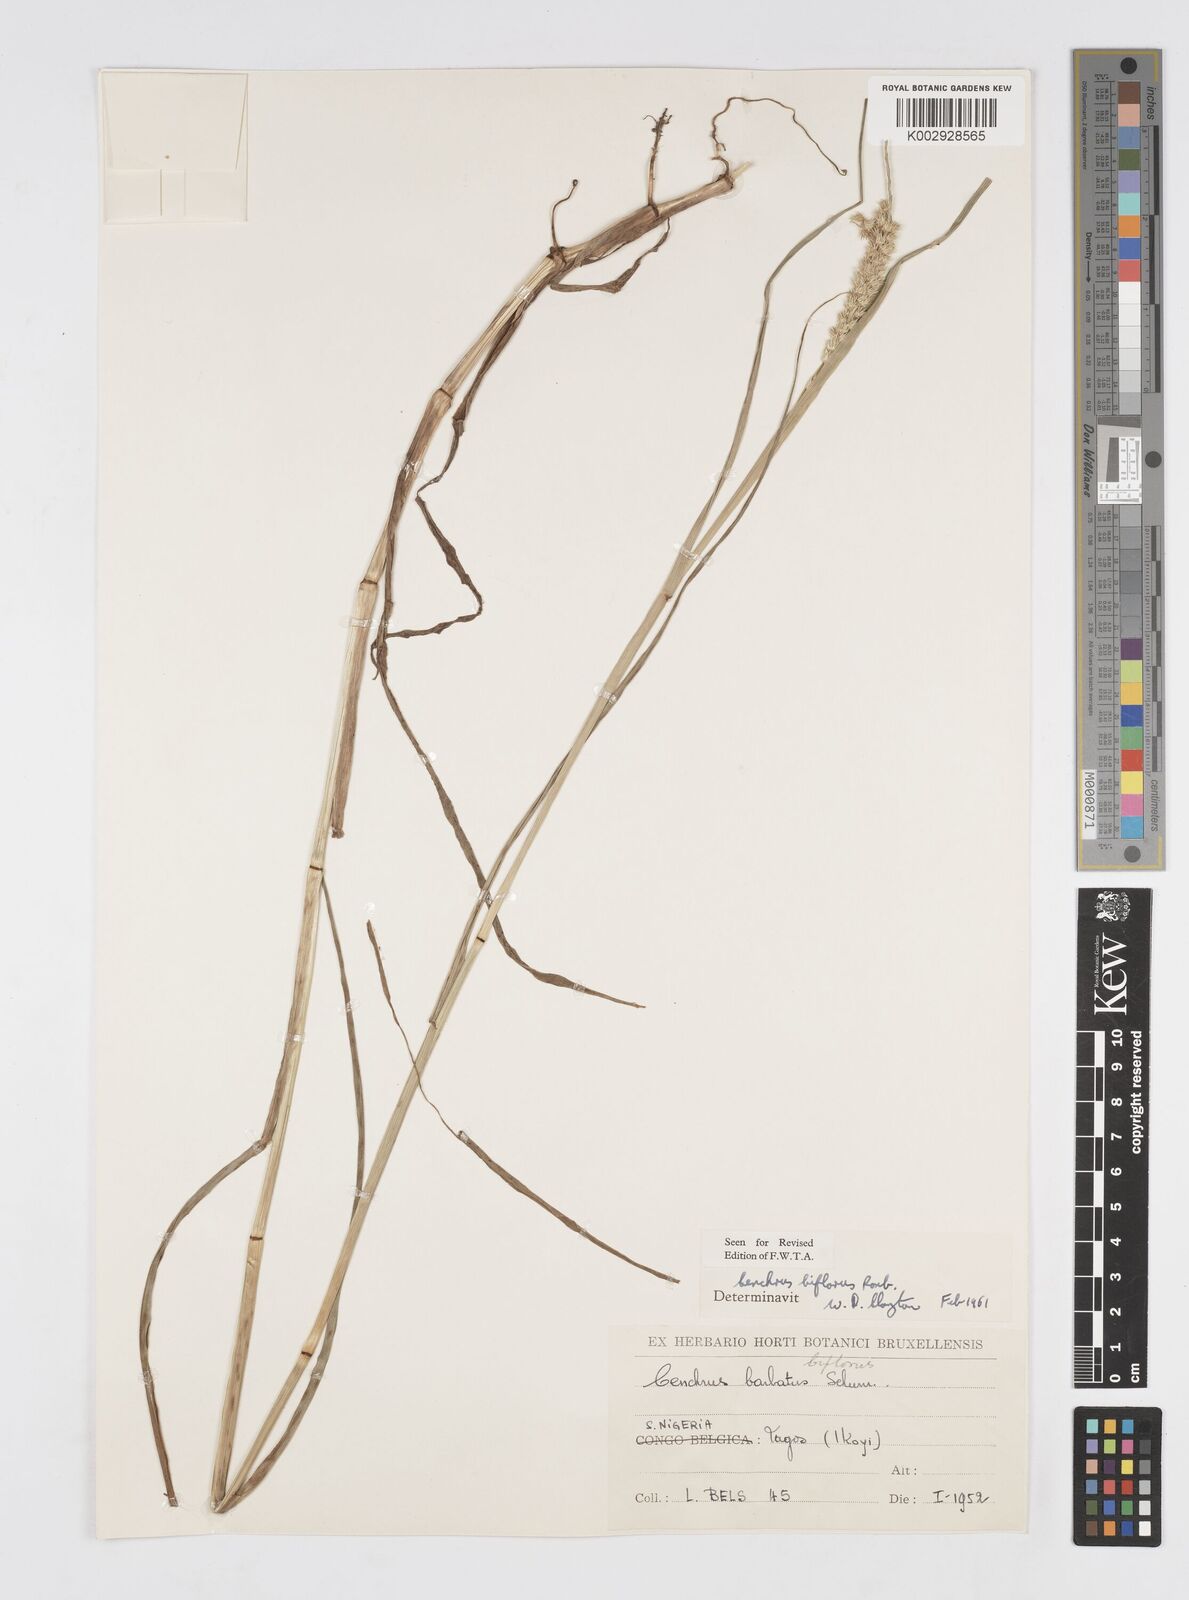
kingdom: Plantae
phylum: Tracheophyta
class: Liliopsida
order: Poales
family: Poaceae
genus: Cenchrus
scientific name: Cenchrus biflorus
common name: Indian sandbur
